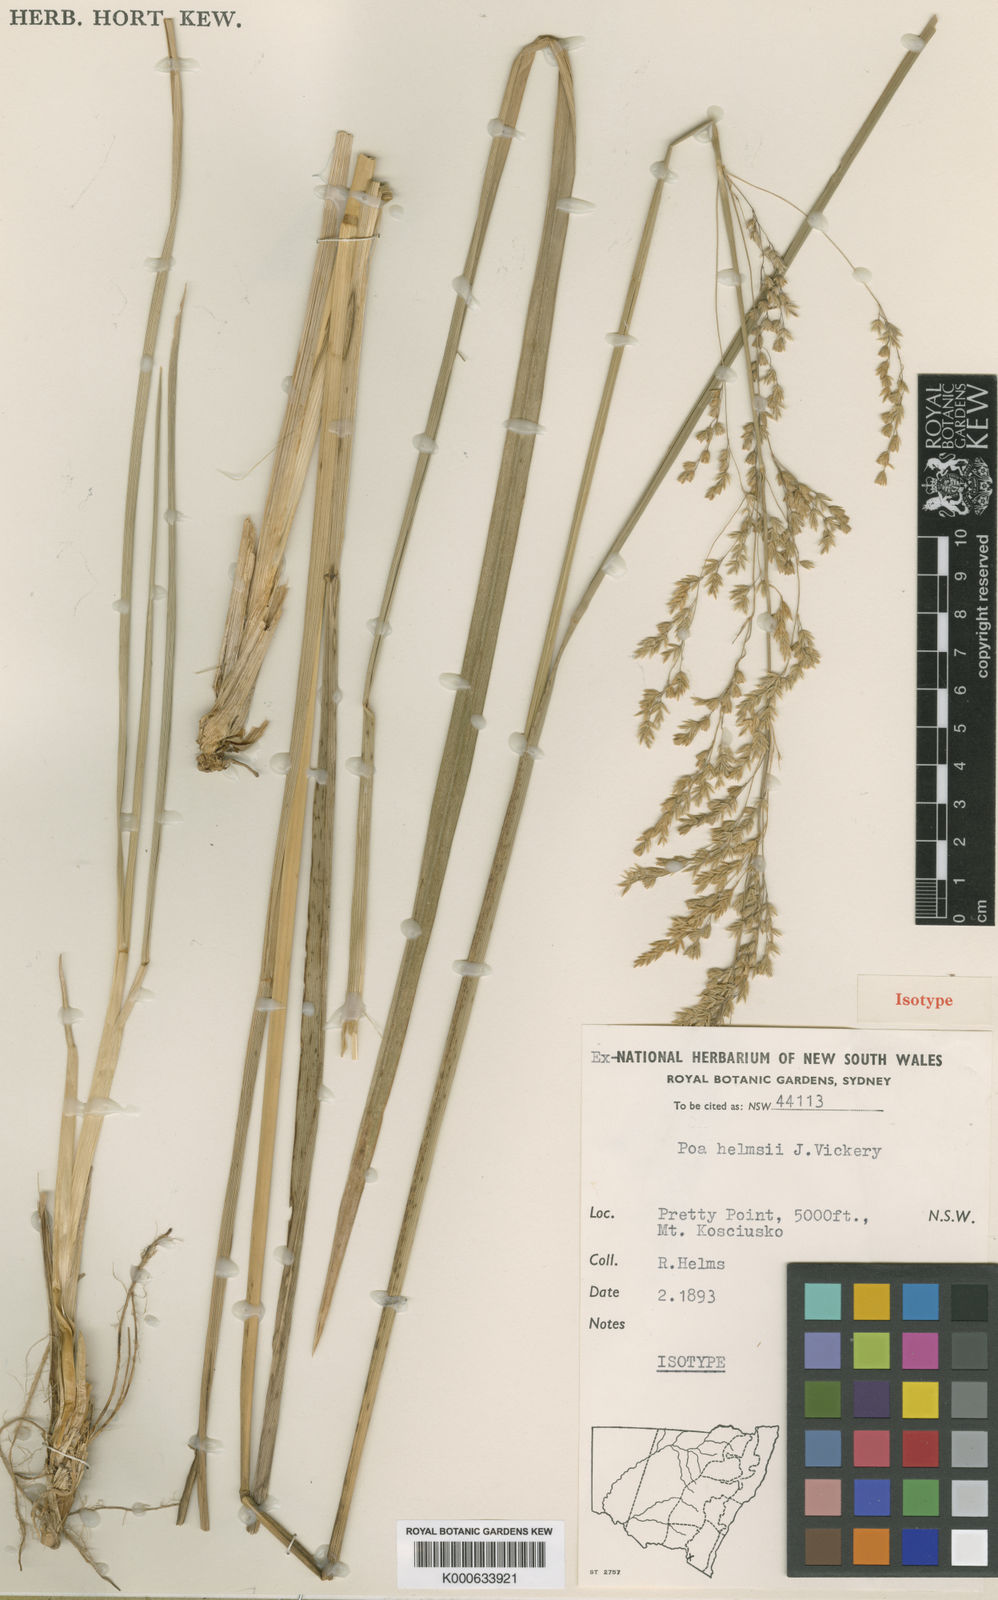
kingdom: Plantae
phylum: Tracheophyta
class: Liliopsida
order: Poales
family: Poaceae
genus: Poa
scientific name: Poa helmsii
